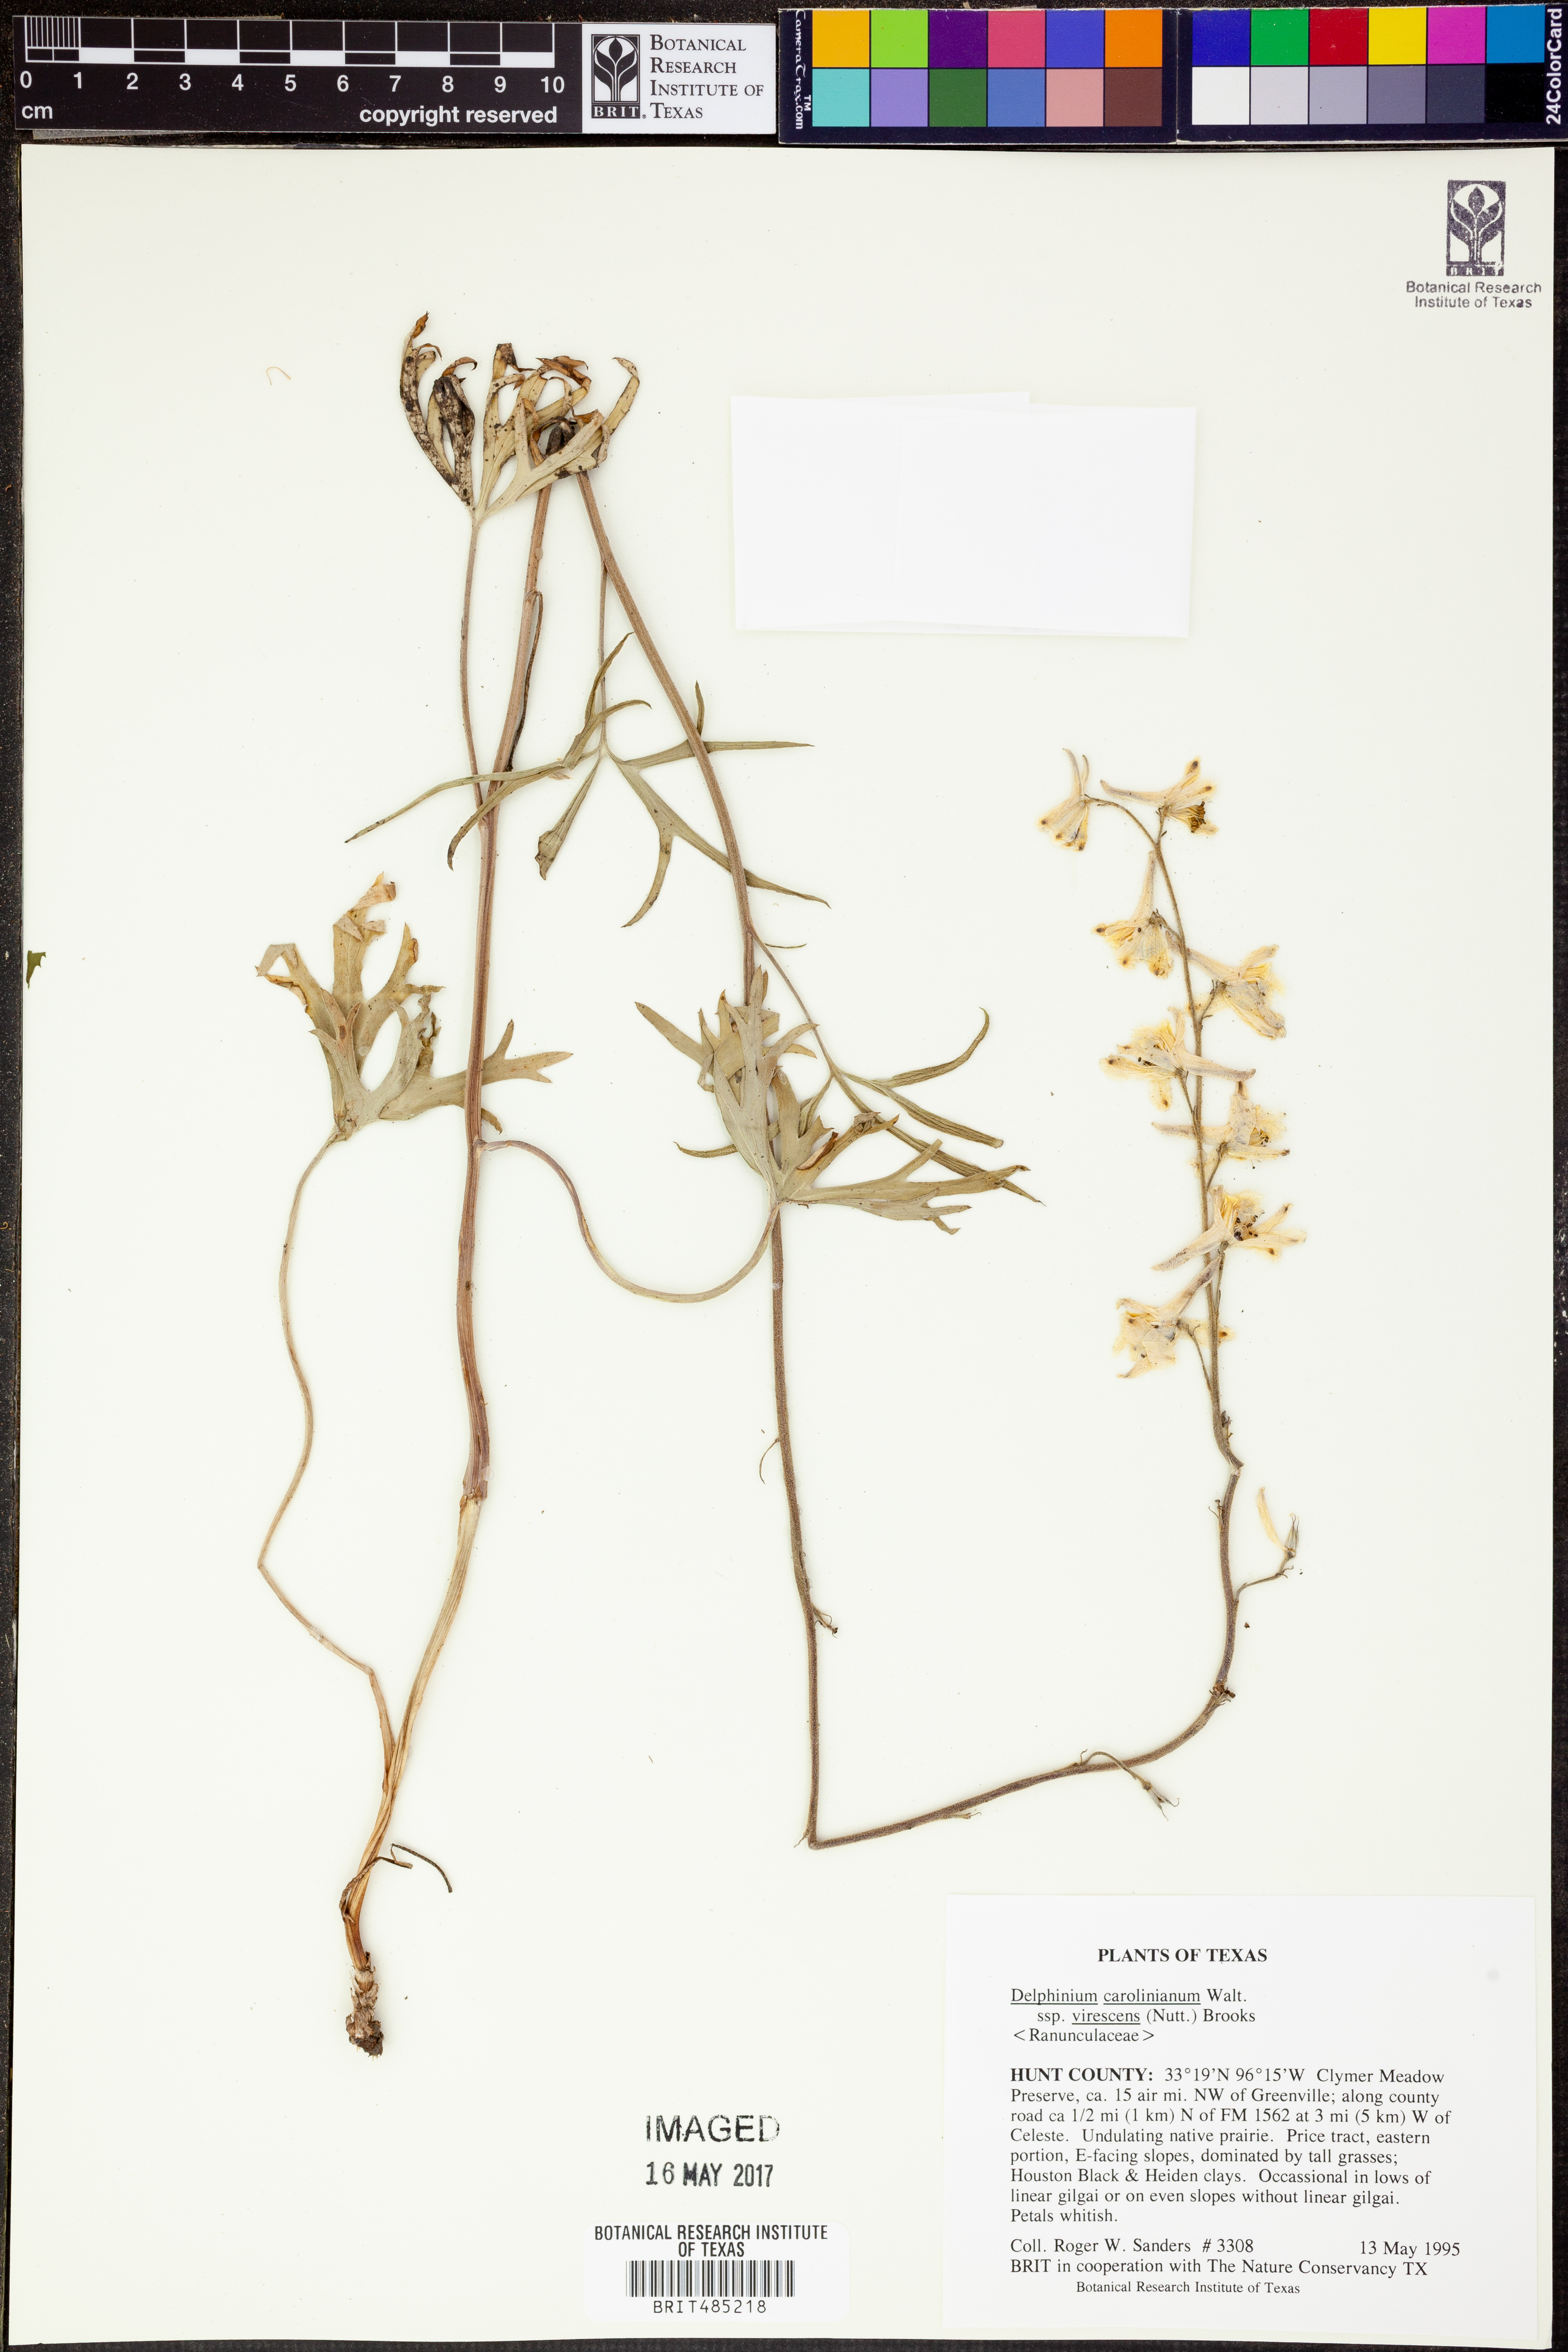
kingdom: Plantae
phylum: Tracheophyta
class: Magnoliopsida
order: Ranunculales
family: Ranunculaceae
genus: Delphinium
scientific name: Delphinium carolinianum
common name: Carolina larkspur
